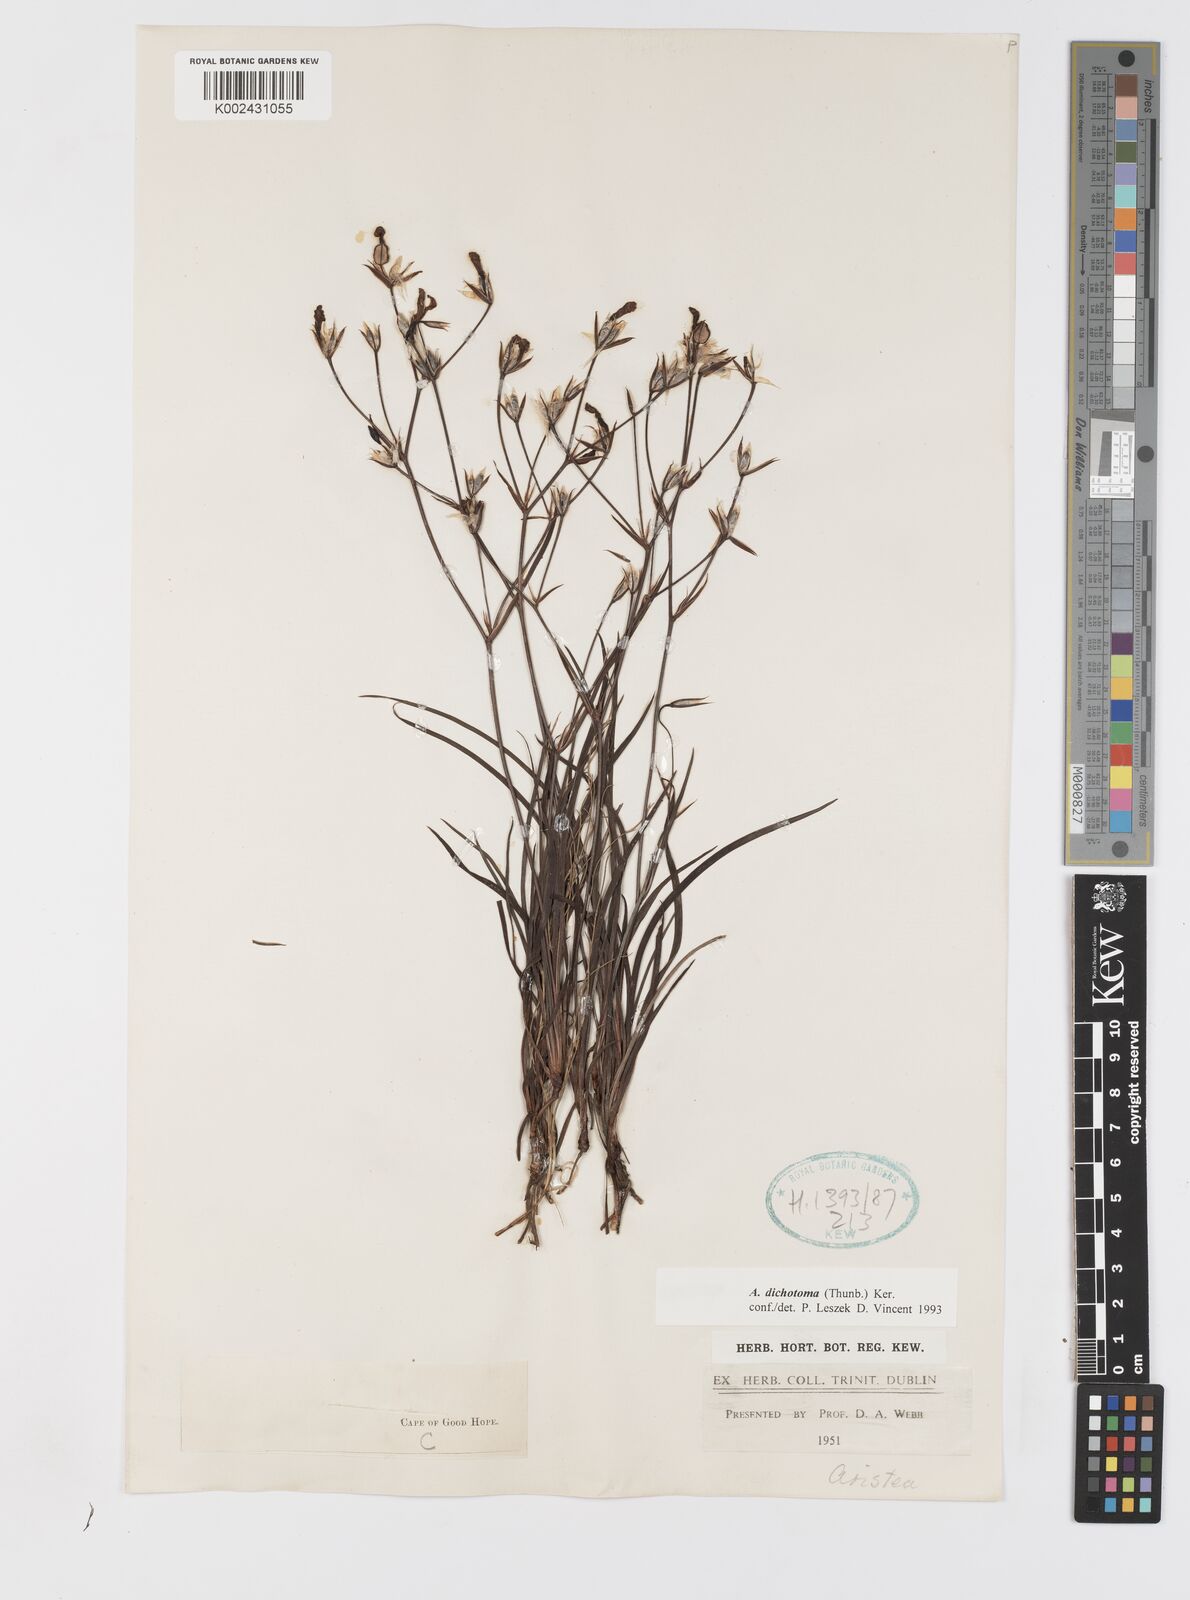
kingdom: Plantae
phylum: Tracheophyta
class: Liliopsida
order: Asparagales
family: Iridaceae
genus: Aristea
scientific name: Aristea dichotoma
